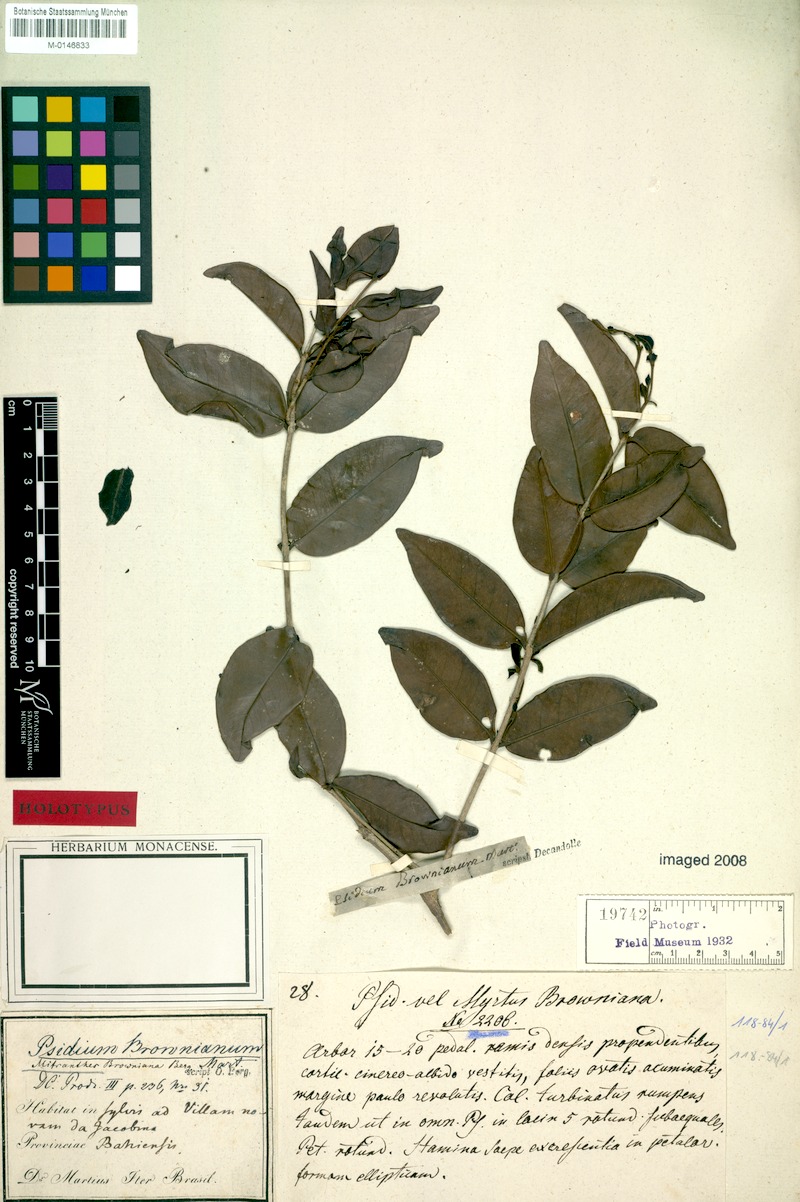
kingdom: Plantae
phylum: Tracheophyta
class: Magnoliopsida
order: Myrtales
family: Myrtaceae
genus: Psidium
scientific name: Psidium brownianum
